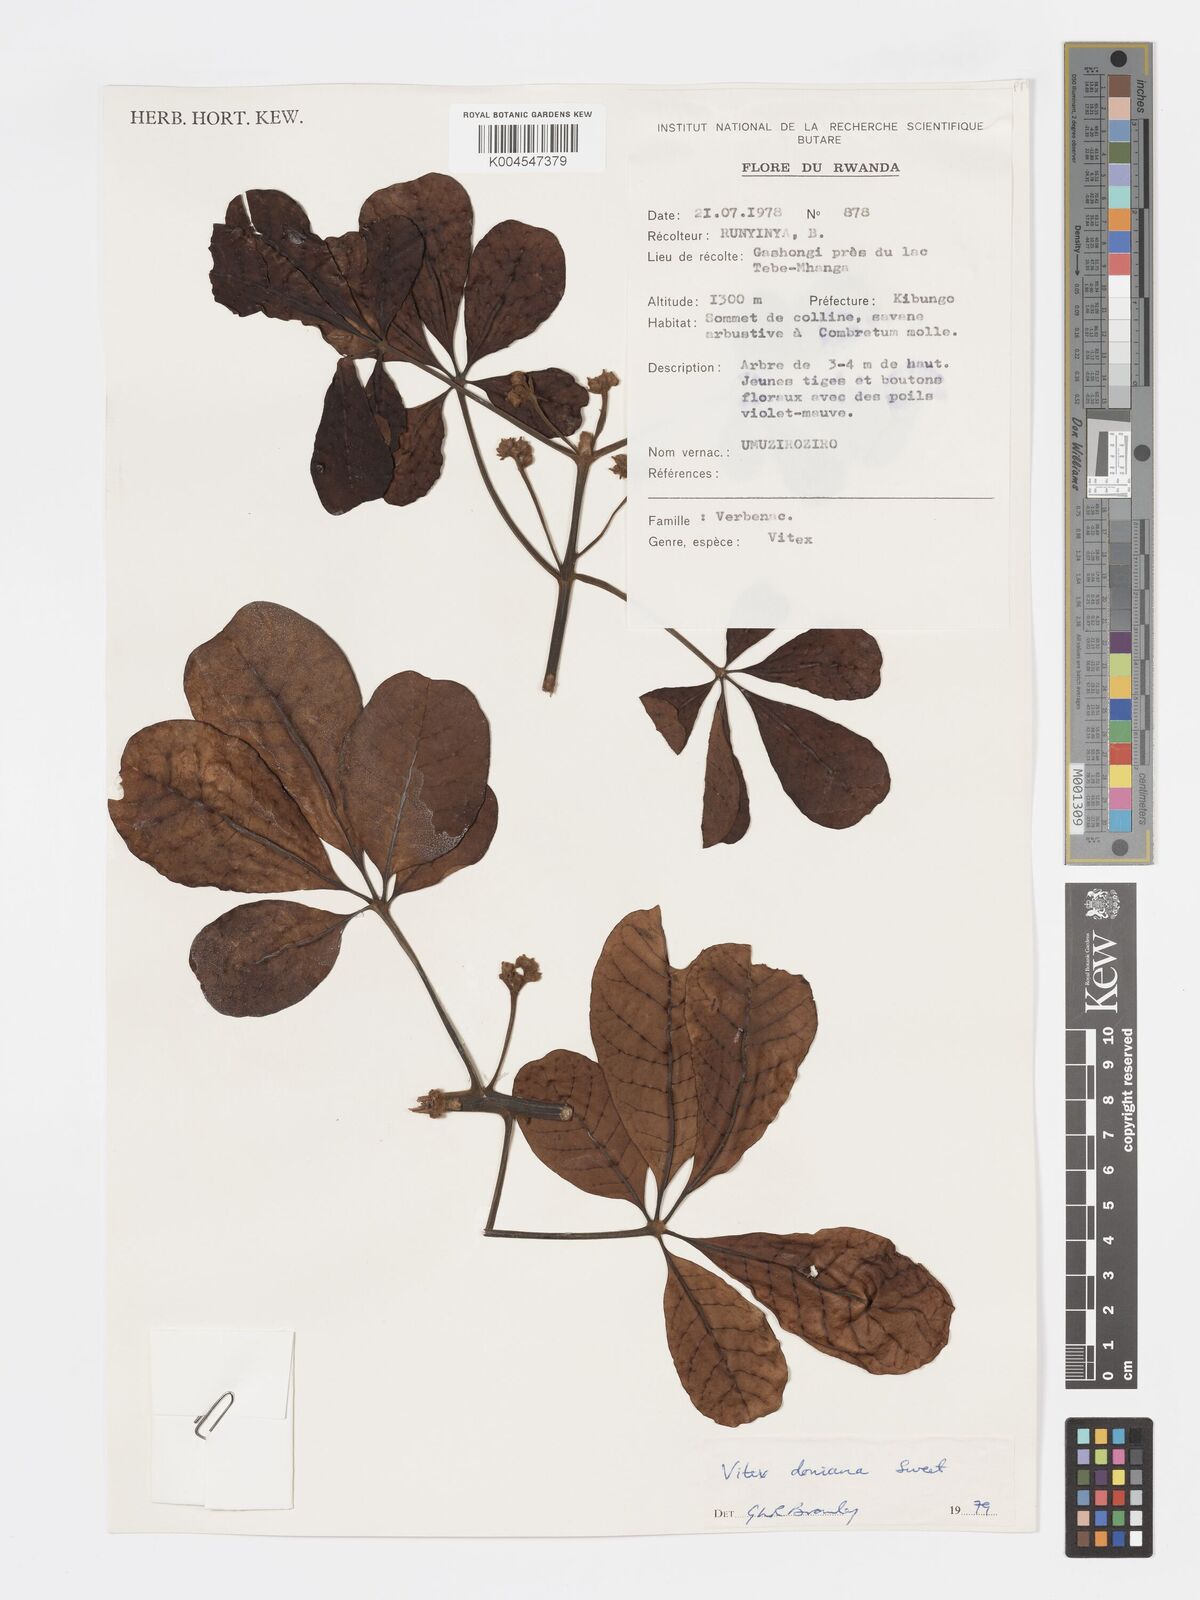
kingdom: Plantae
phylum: Tracheophyta
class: Magnoliopsida
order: Lamiales
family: Lamiaceae
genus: Vitex
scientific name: Vitex doniana
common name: Black plum
